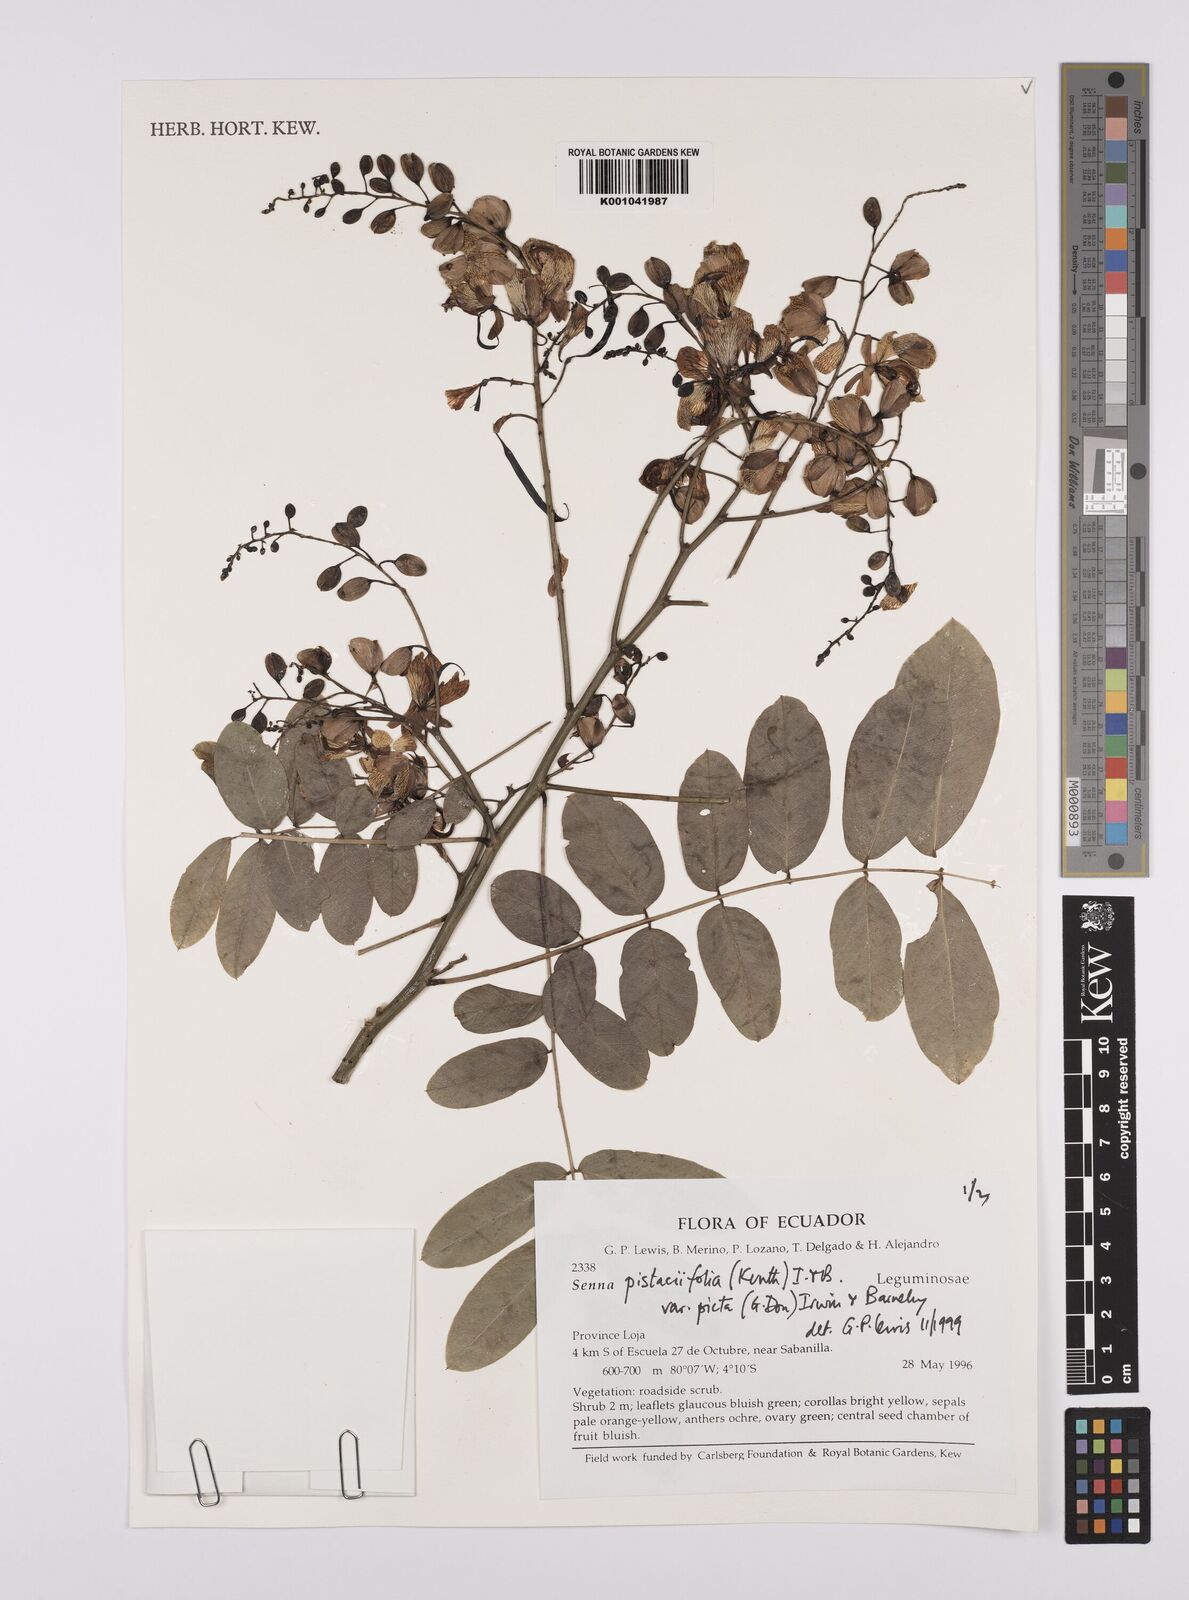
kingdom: Plantae
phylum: Tracheophyta
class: Magnoliopsida
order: Fabales
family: Fabaceae
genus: Senna
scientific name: Senna pistaciifolia
